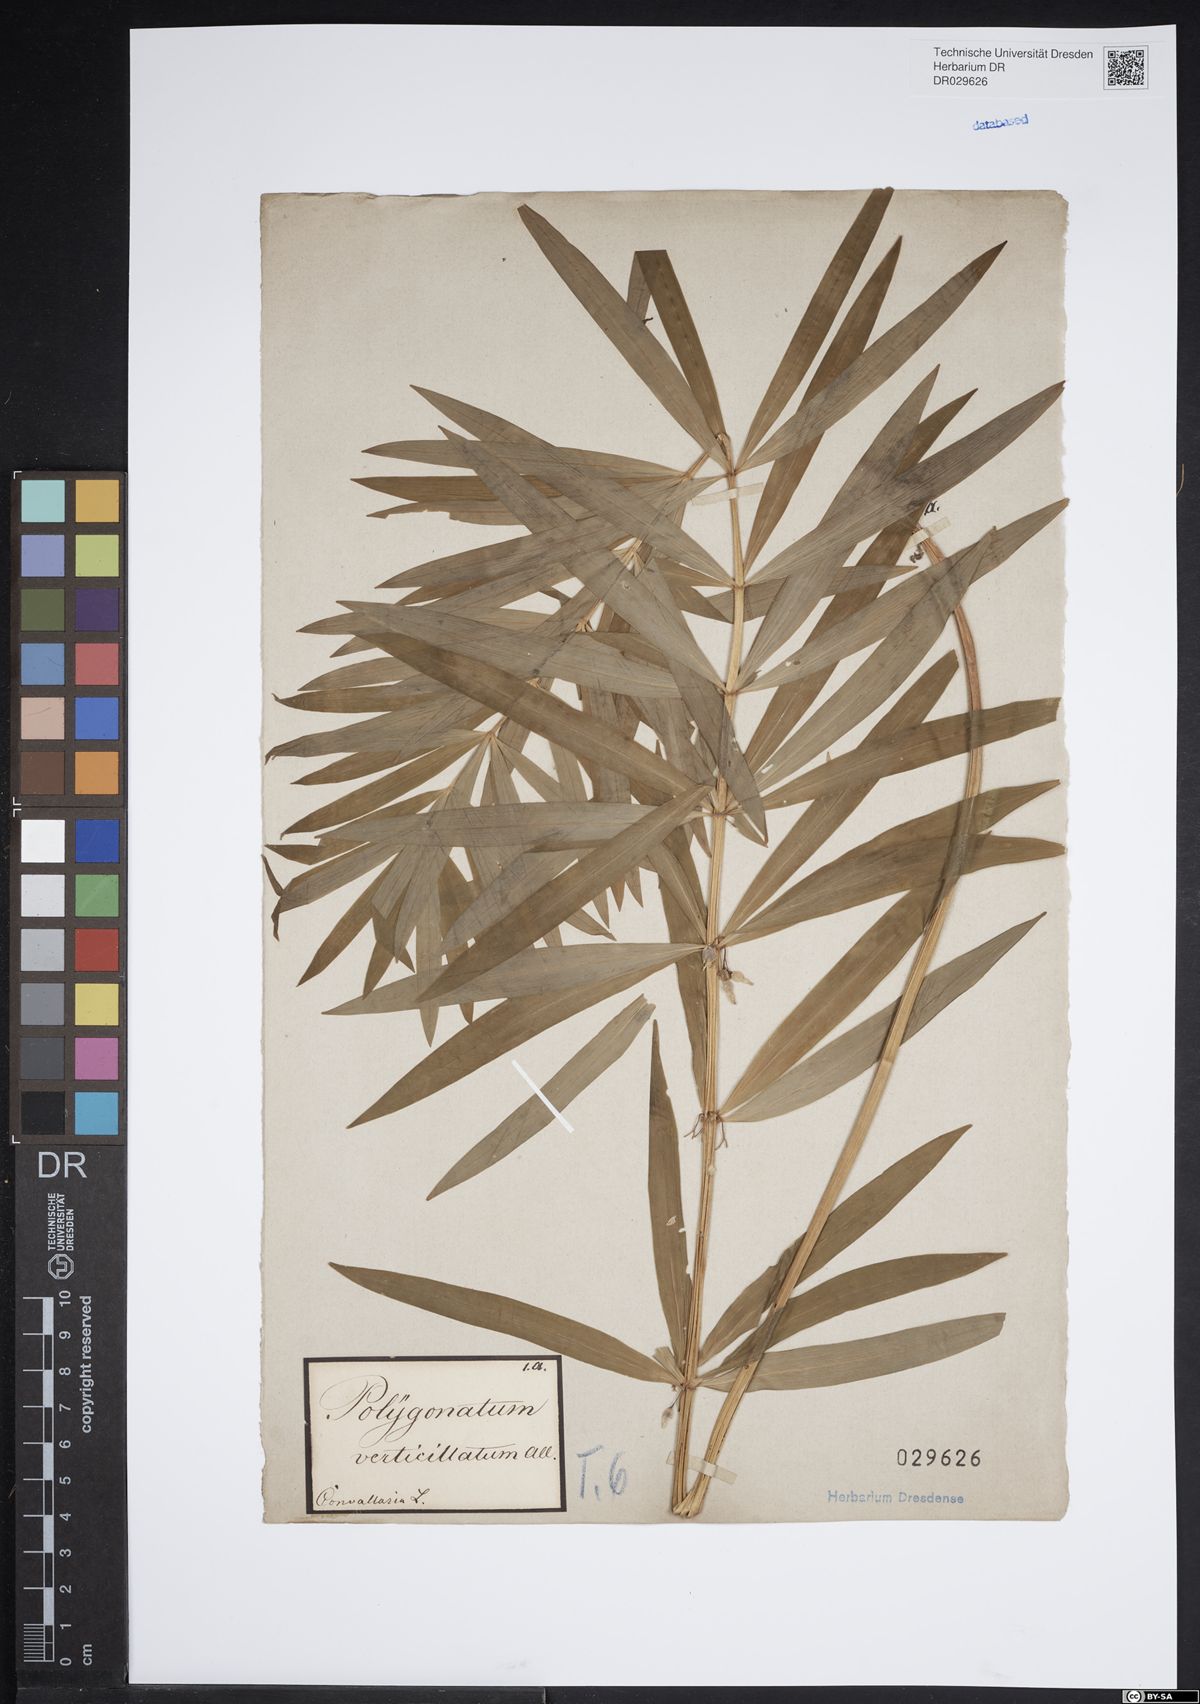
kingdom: Plantae
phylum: Tracheophyta
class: Liliopsida
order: Asparagales
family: Asparagaceae
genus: Polygonatum
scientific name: Polygonatum verticillatum
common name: Whorled solomon's-seal
